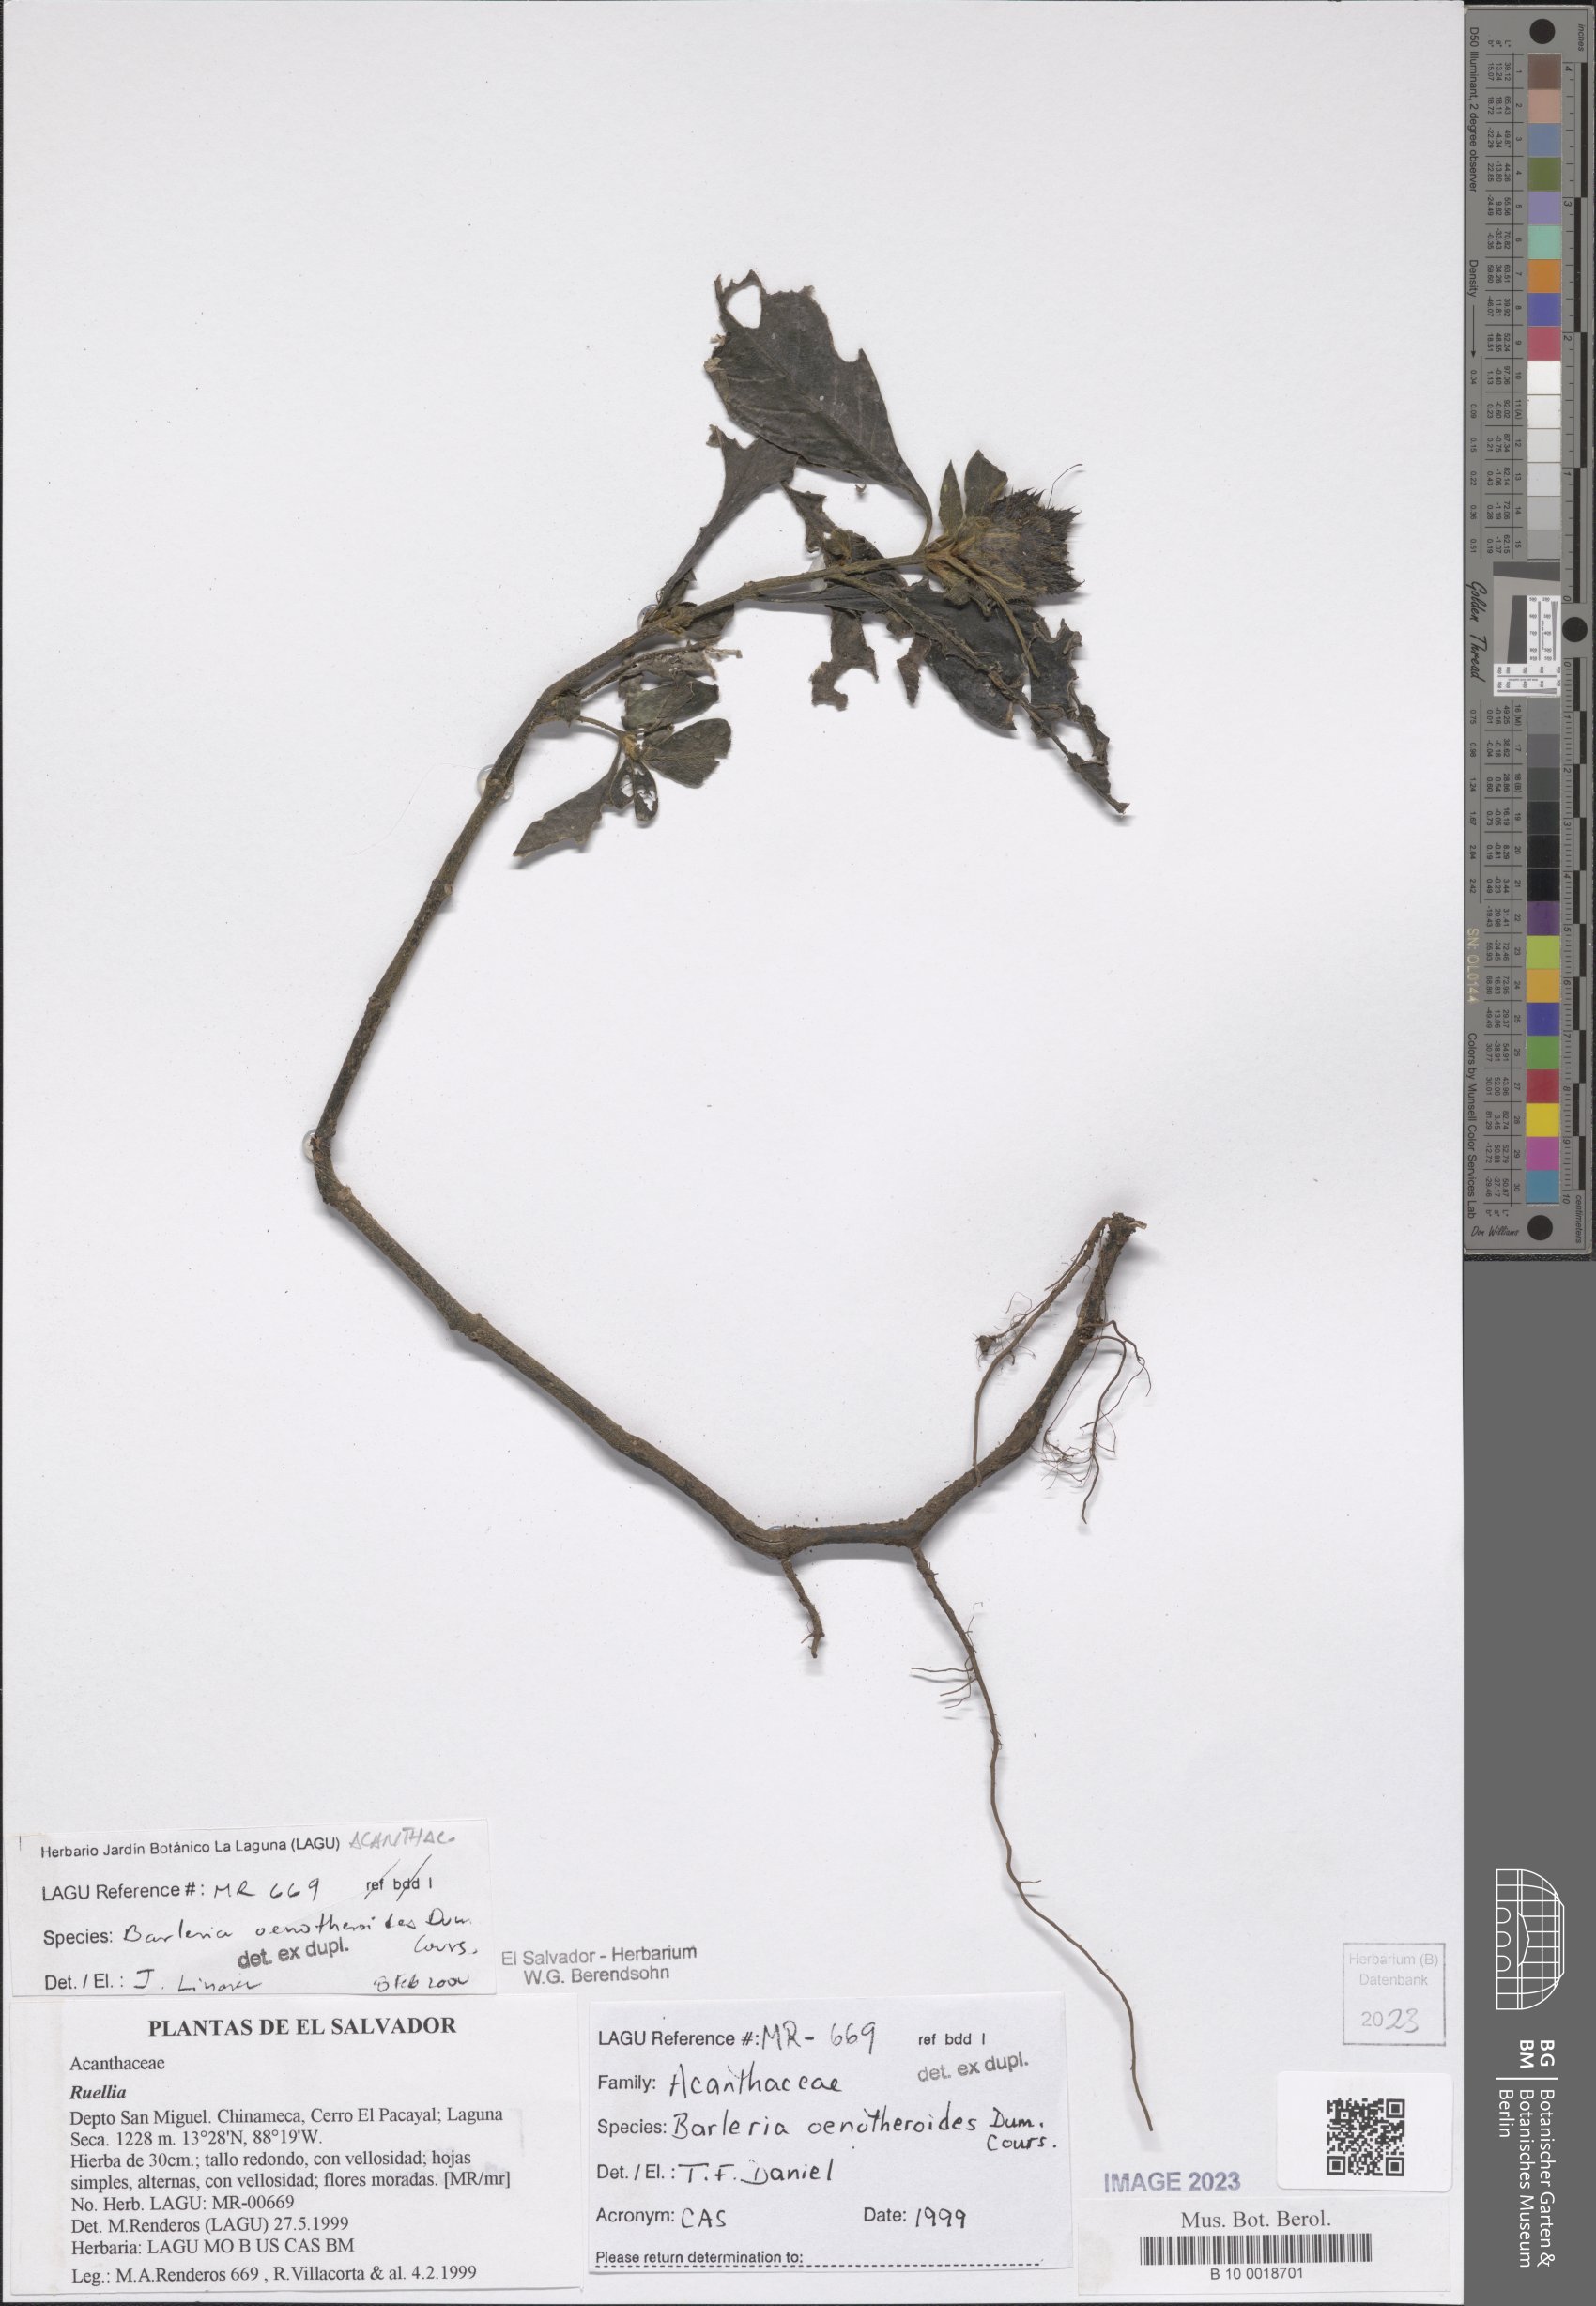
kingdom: Plantae
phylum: Tracheophyta
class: Magnoliopsida
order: Lamiales
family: Acanthaceae
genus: Barleria
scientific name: Barleria oenotheroides
